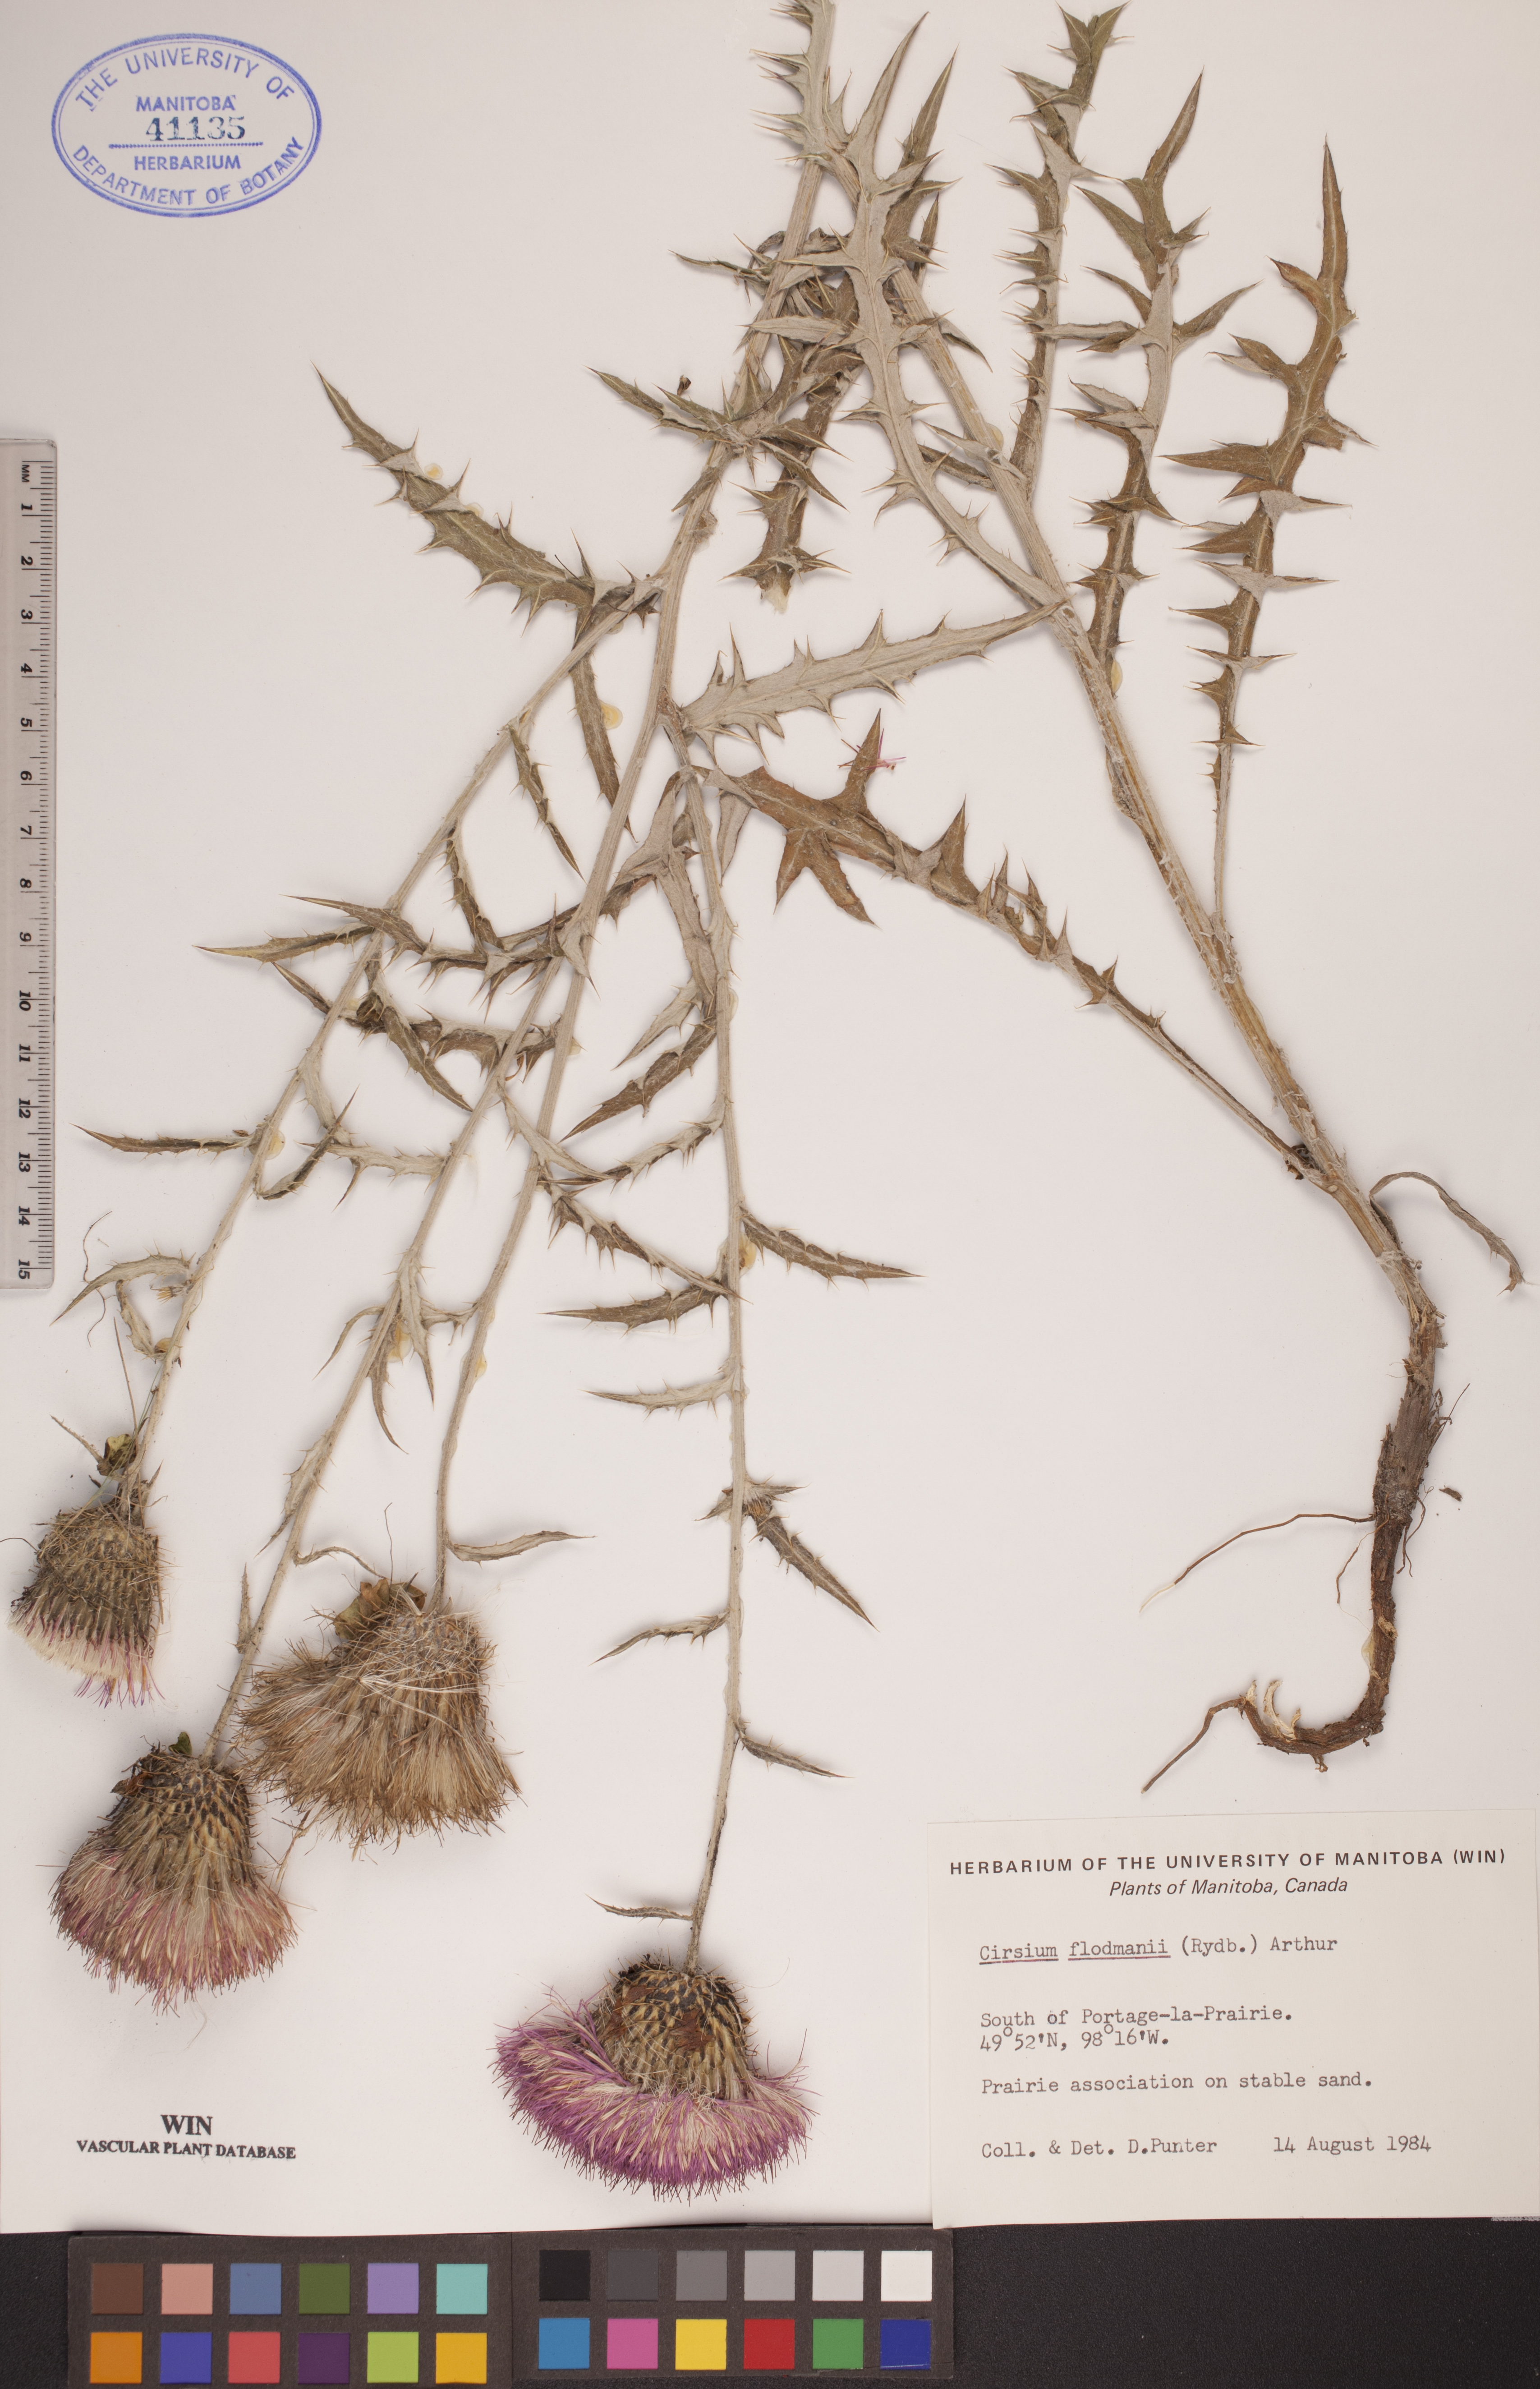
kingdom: Plantae
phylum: Tracheophyta
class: Magnoliopsida
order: Asterales
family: Asteraceae
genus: Cirsium
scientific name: Cirsium flodmanii
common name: Flodman's thistle
